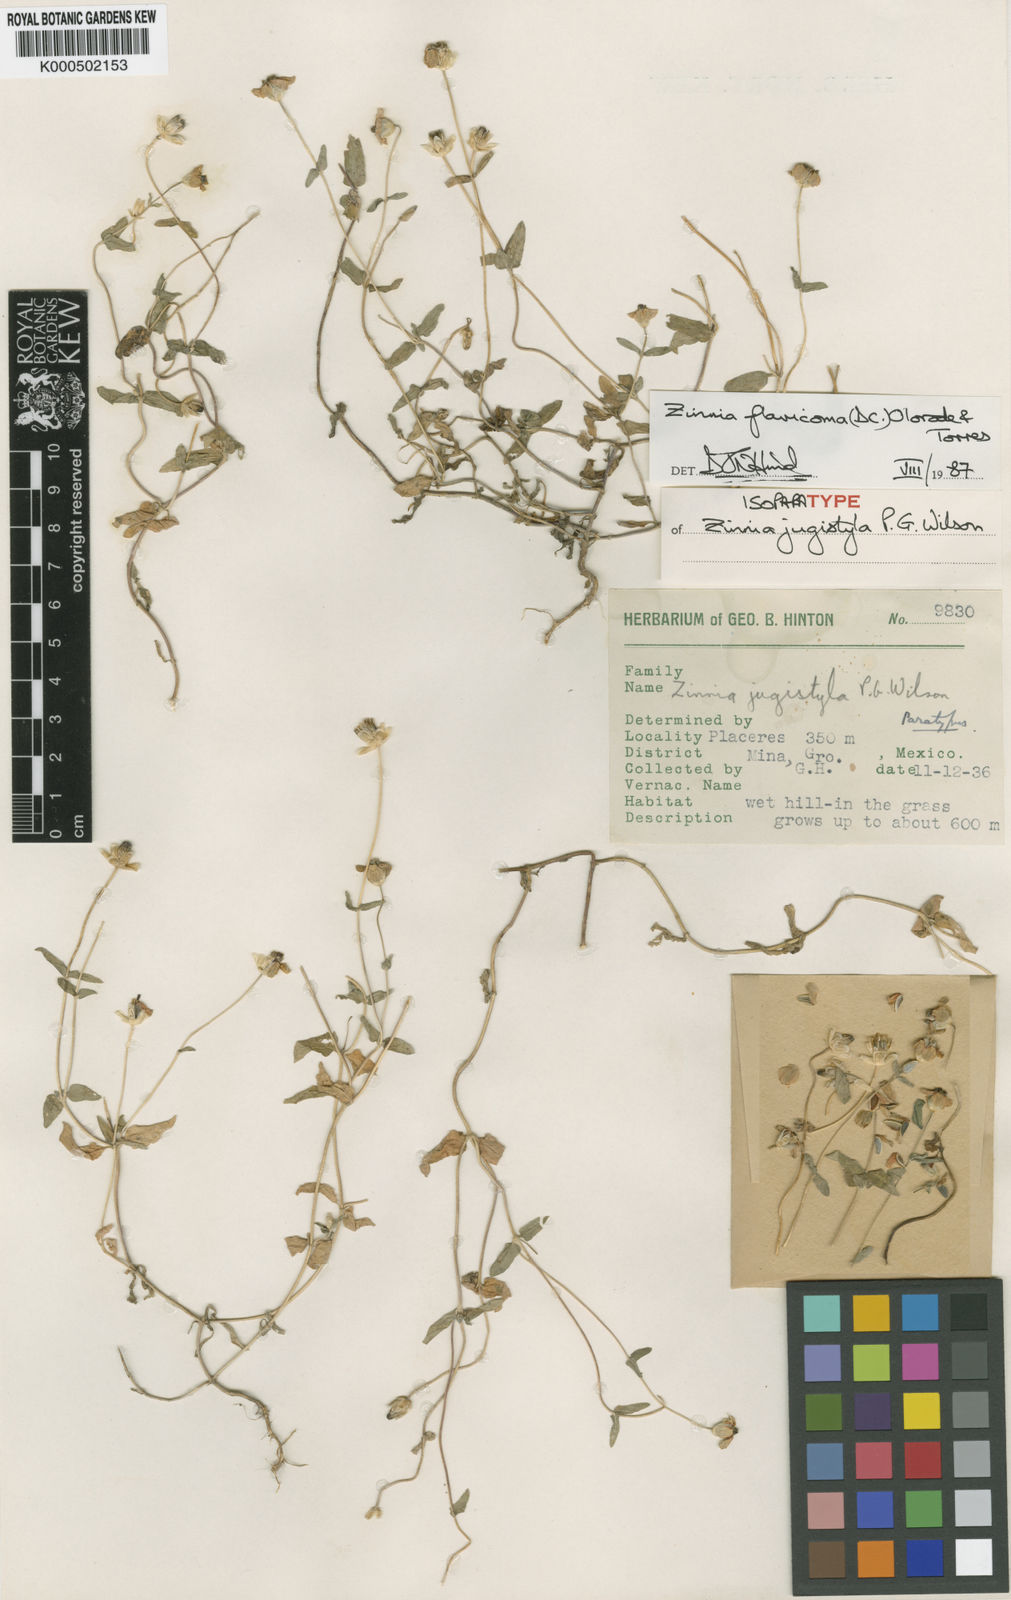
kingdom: Plantae
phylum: Tracheophyta
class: Magnoliopsida
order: Asterales
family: Asteraceae
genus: Zinnia
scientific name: Zinnia flavicoma
